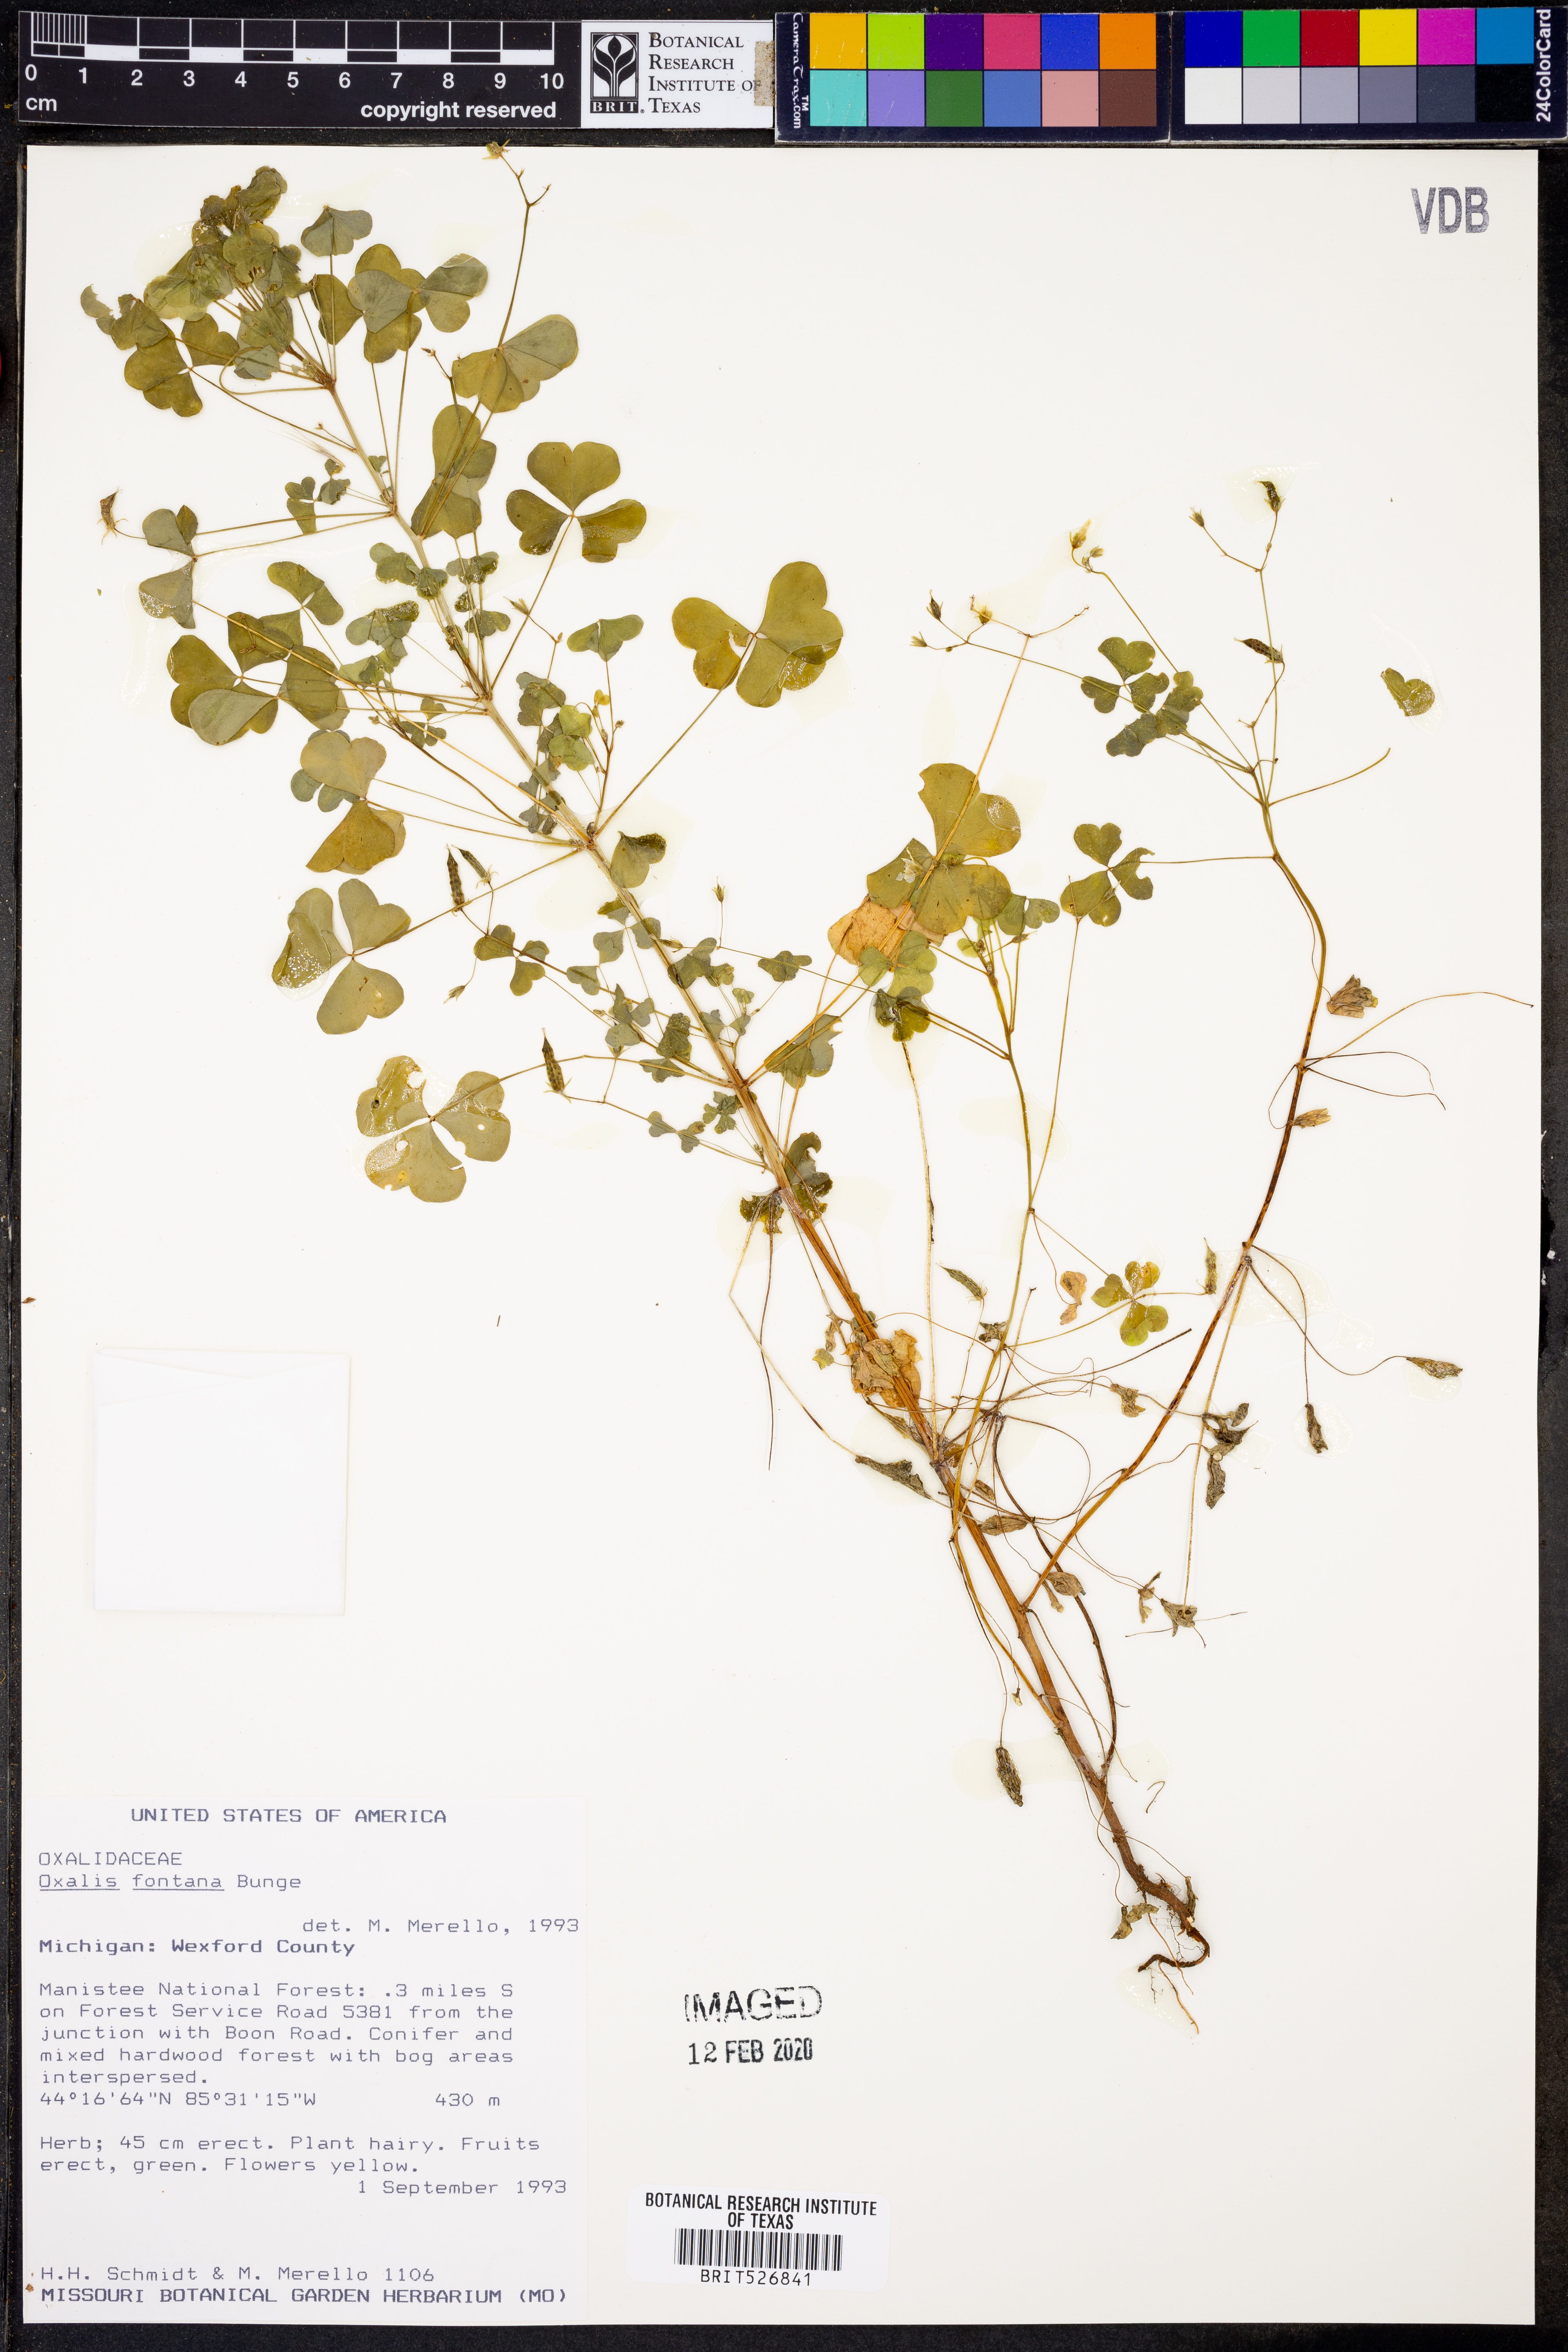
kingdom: Plantae
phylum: Tracheophyta
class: Magnoliopsida
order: Oxalidales
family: Oxalidaceae
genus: Oxalis
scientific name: Oxalis stricta
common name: Upright yellow-sorrel
